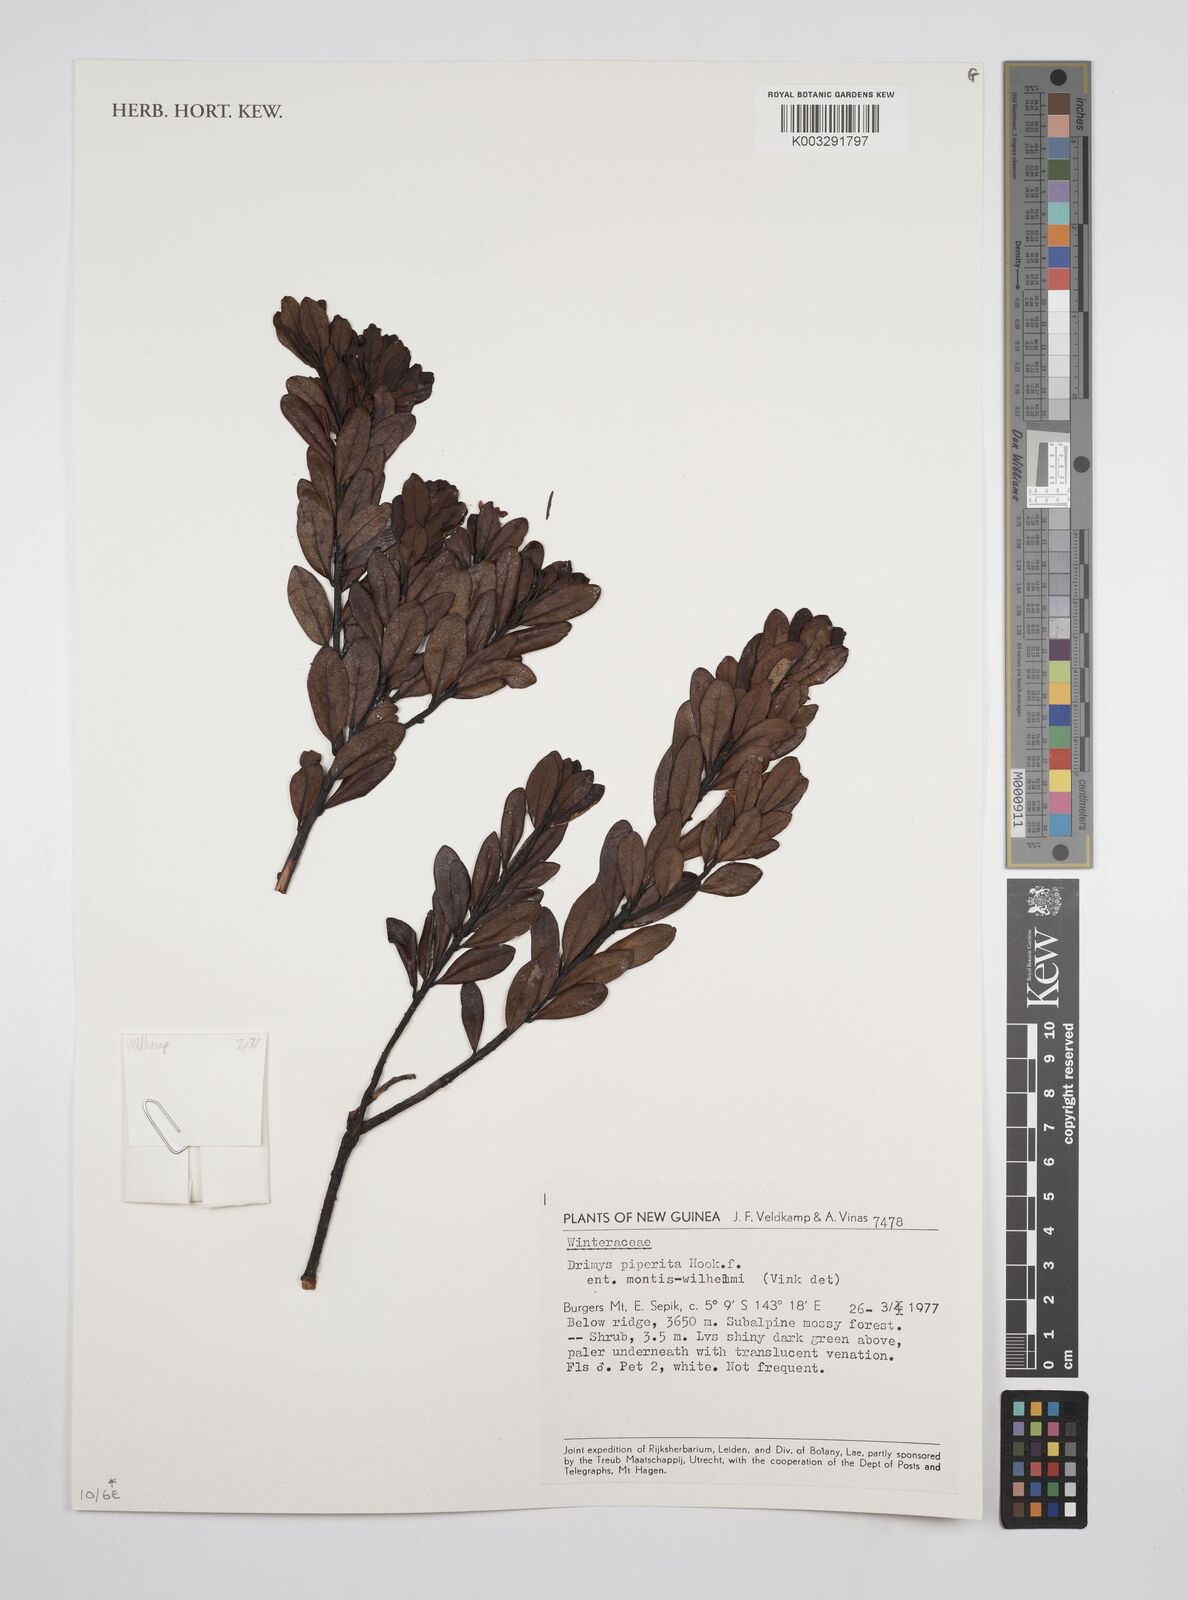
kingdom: Plantae
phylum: Tracheophyta
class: Magnoliopsida
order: Canellales
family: Winteraceae
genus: Drimys
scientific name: Drimys piperita
